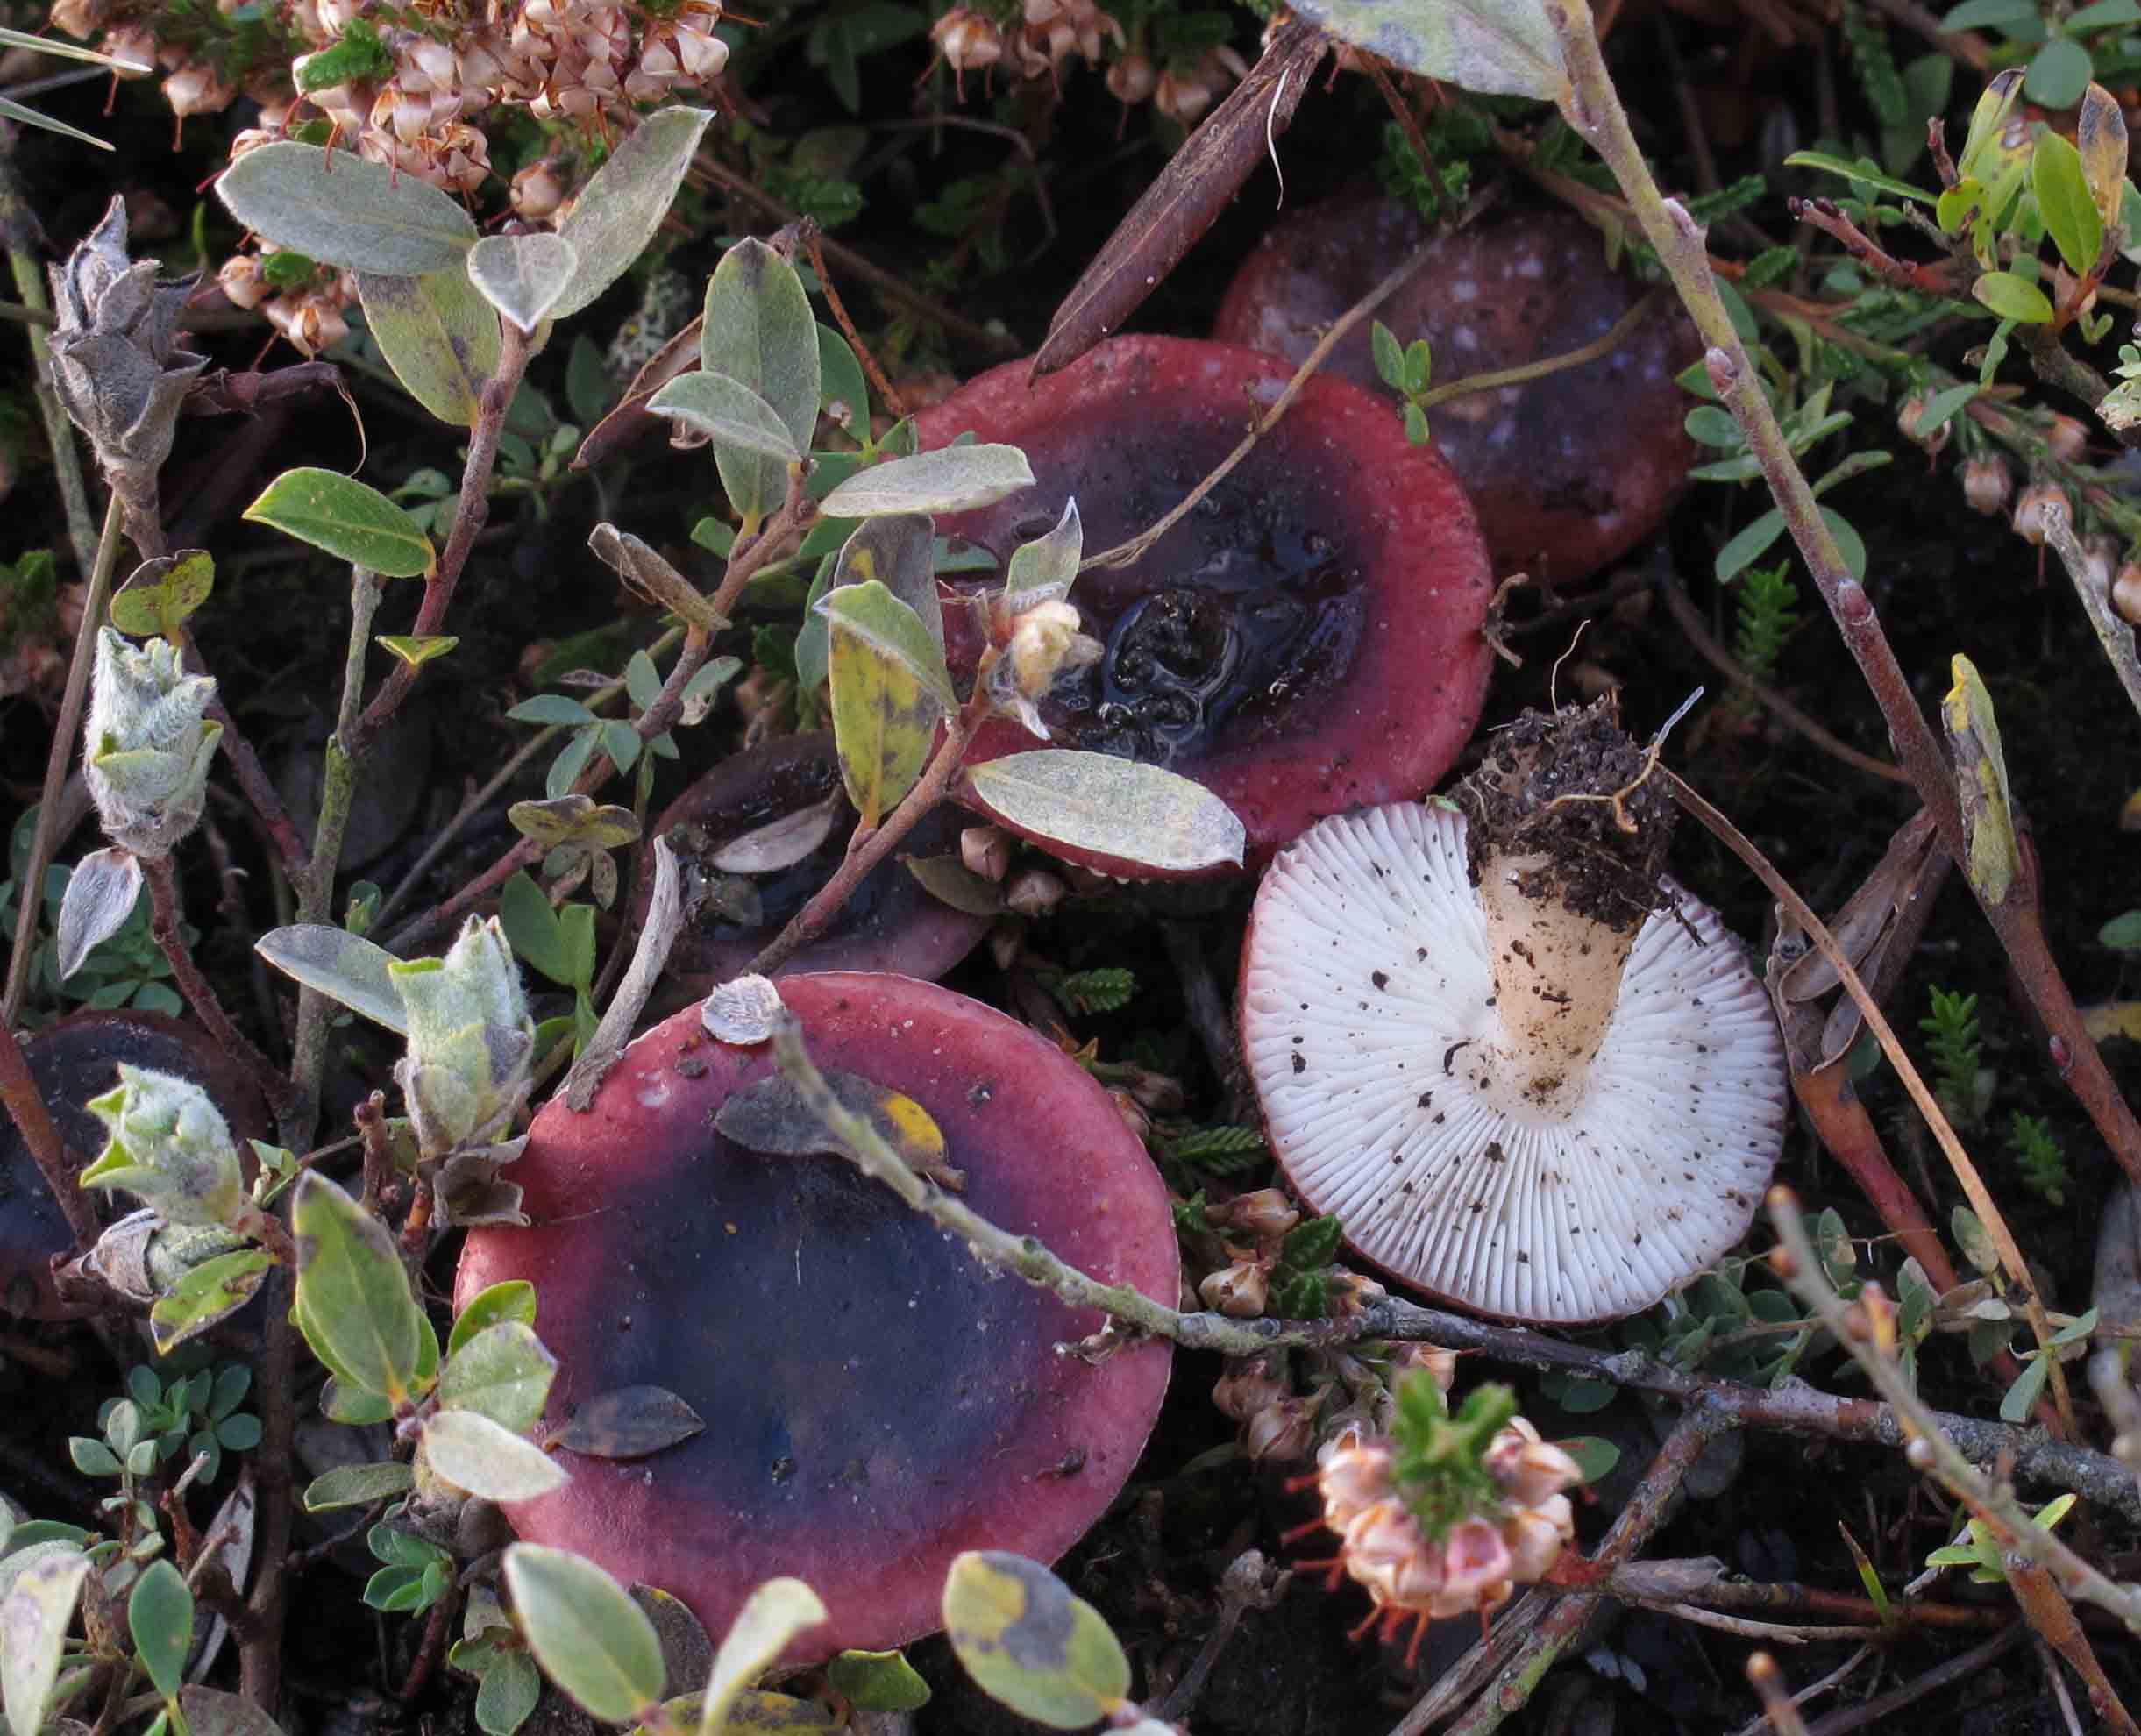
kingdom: Fungi
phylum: Basidiomycota
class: Agaricomycetes
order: Russulales
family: Russulaceae
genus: Russula
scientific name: Russula laccata
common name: klit-skørhat
